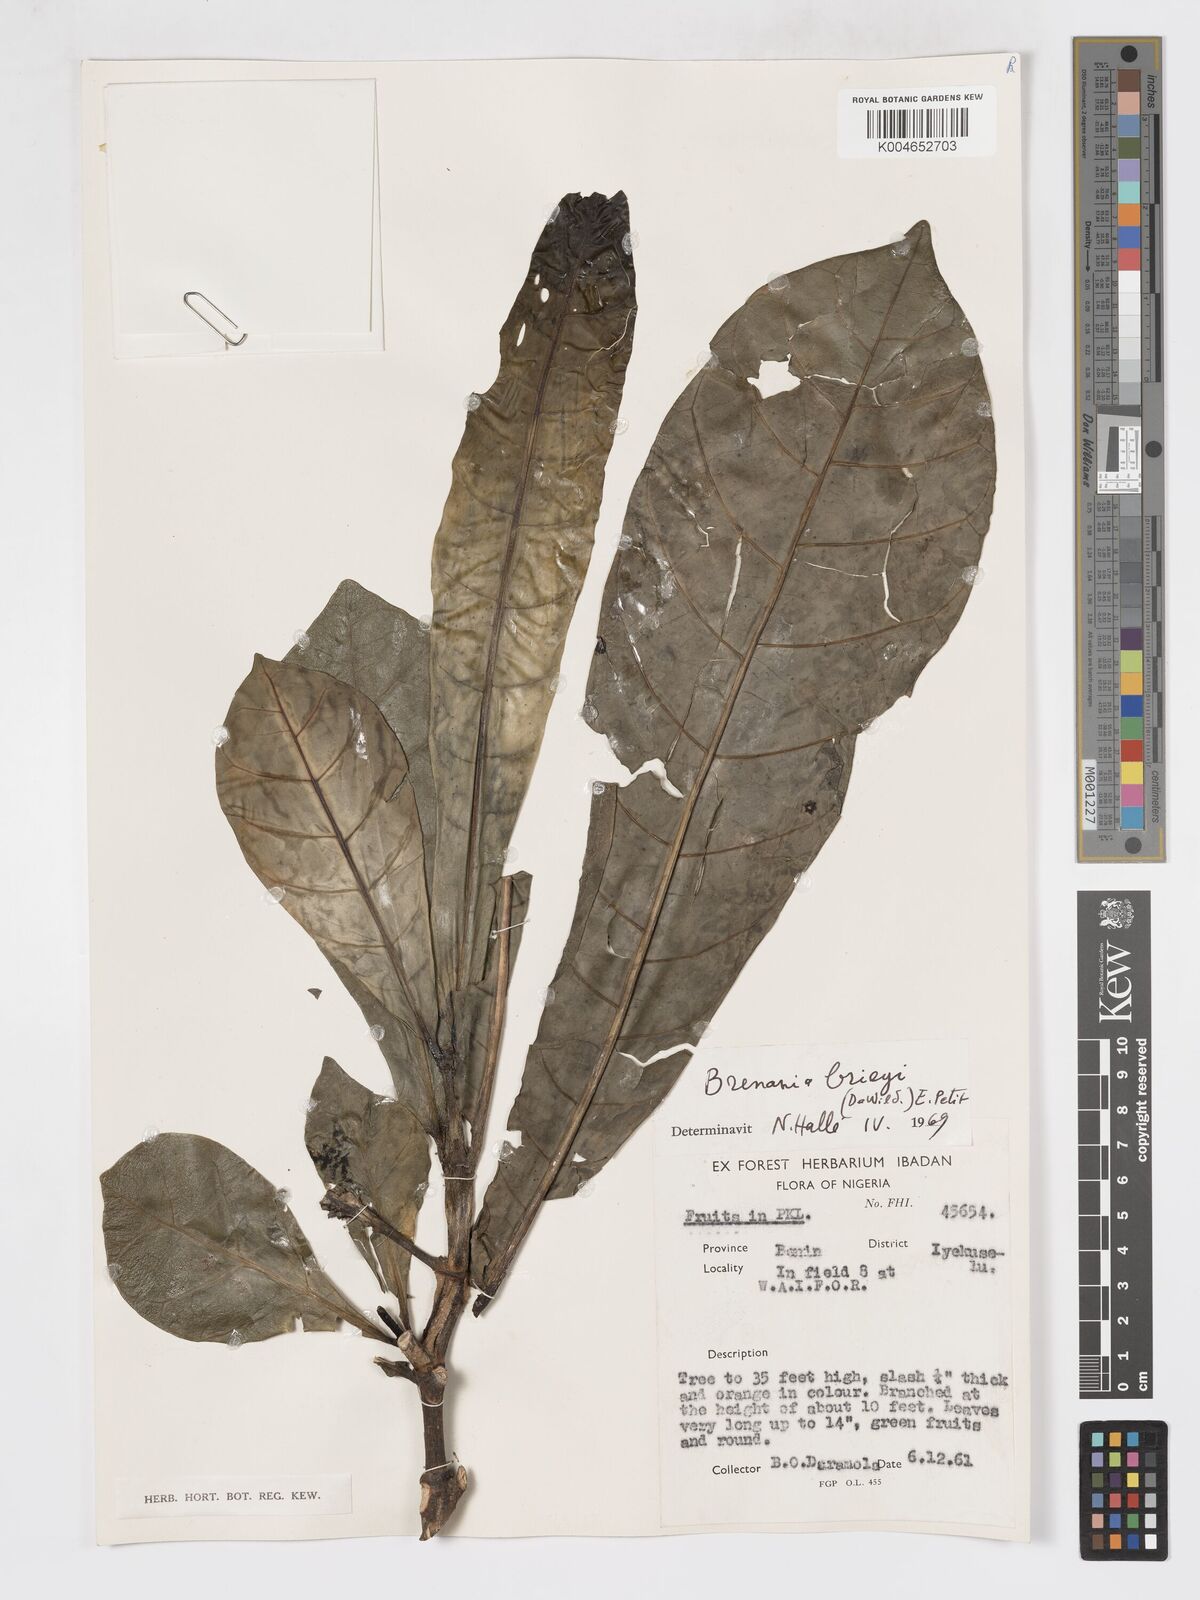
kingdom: Plantae
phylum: Tracheophyta
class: Magnoliopsida
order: Gentianales
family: Rubiaceae
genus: Brenania
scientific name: Brenania brieyi
